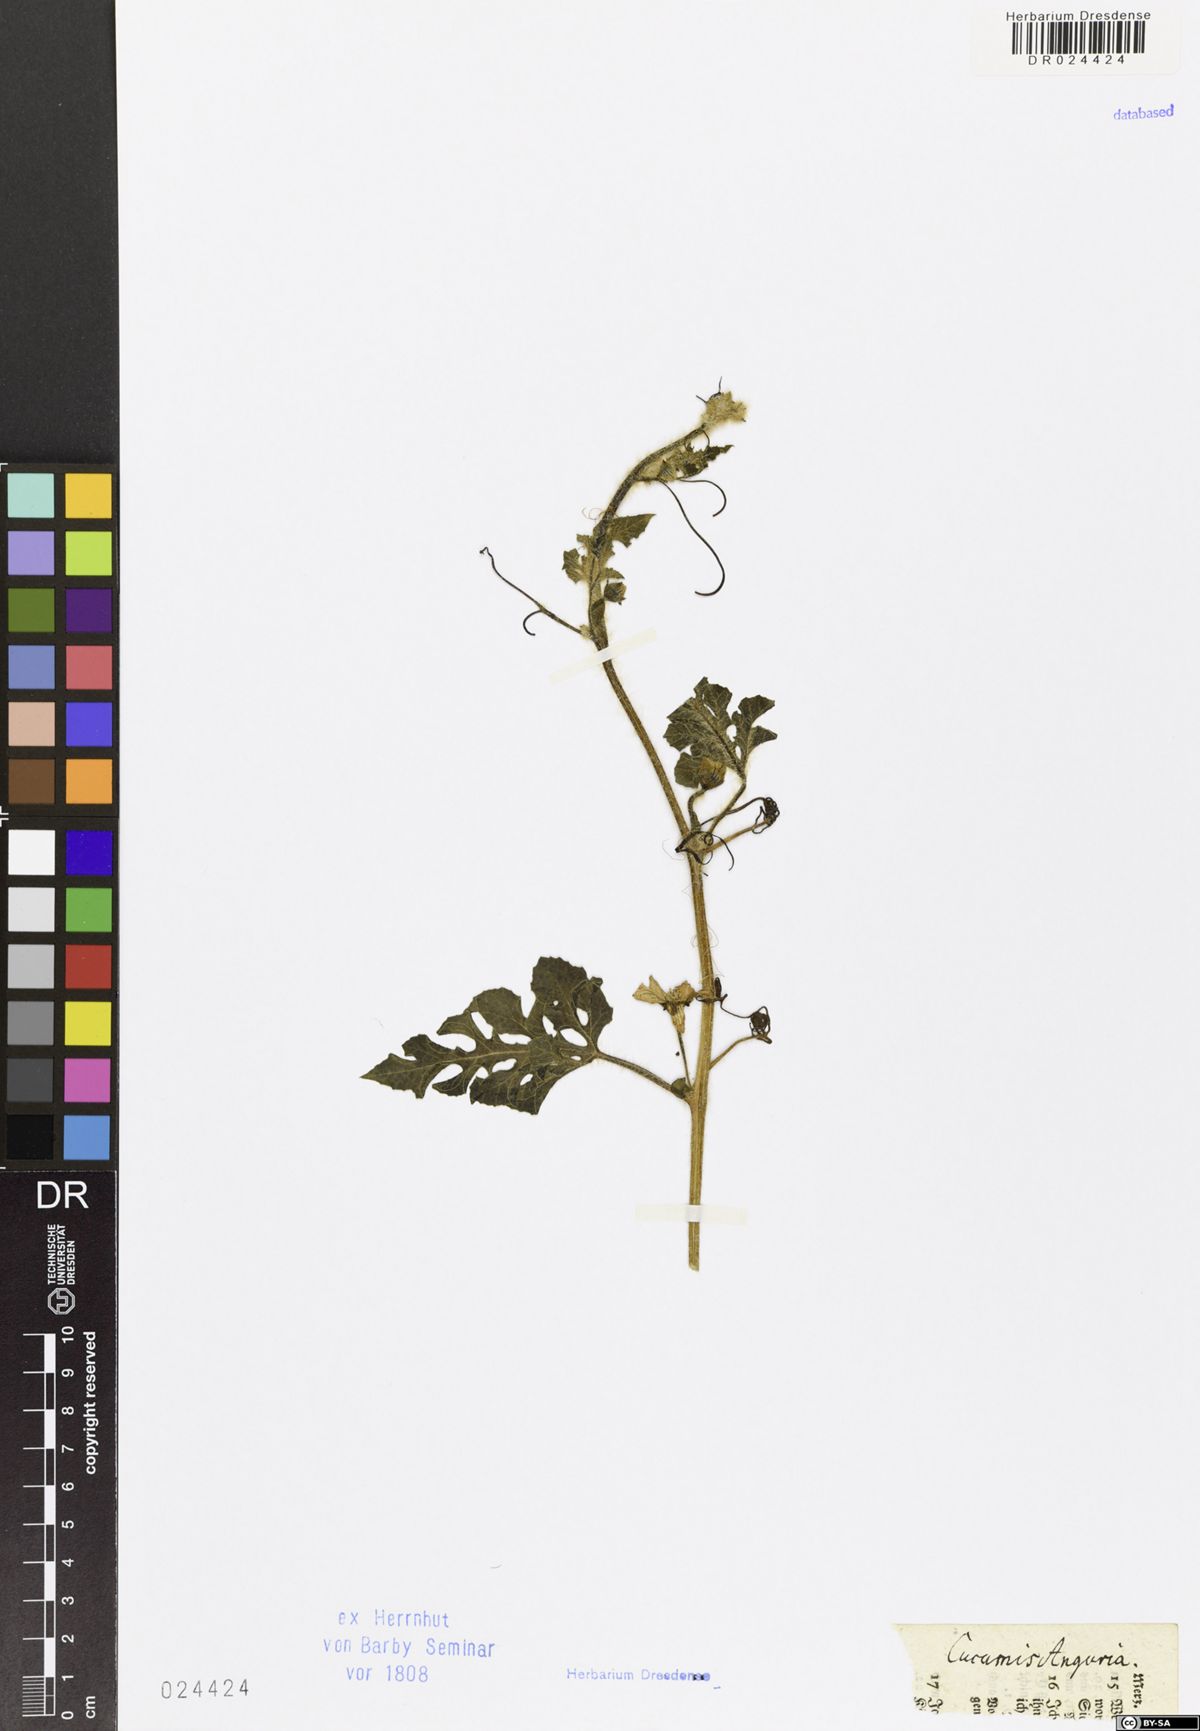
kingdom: Plantae
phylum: Tracheophyta
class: Magnoliopsida
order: Cucurbitales
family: Cucurbitaceae
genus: Cucumis
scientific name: Cucumis anguria
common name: West indian gherkin
